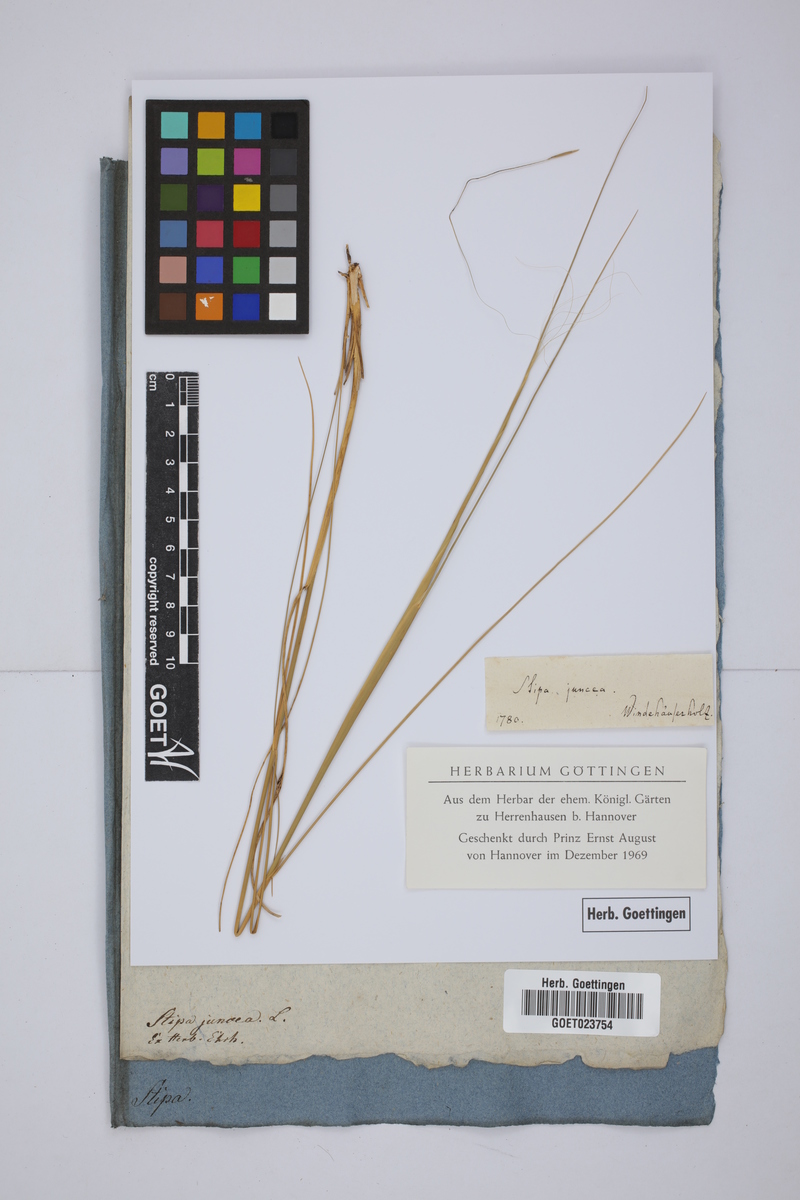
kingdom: Plantae
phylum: Tracheophyta
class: Liliopsida
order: Poales
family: Poaceae
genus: Stipa
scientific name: Stipa juncea
